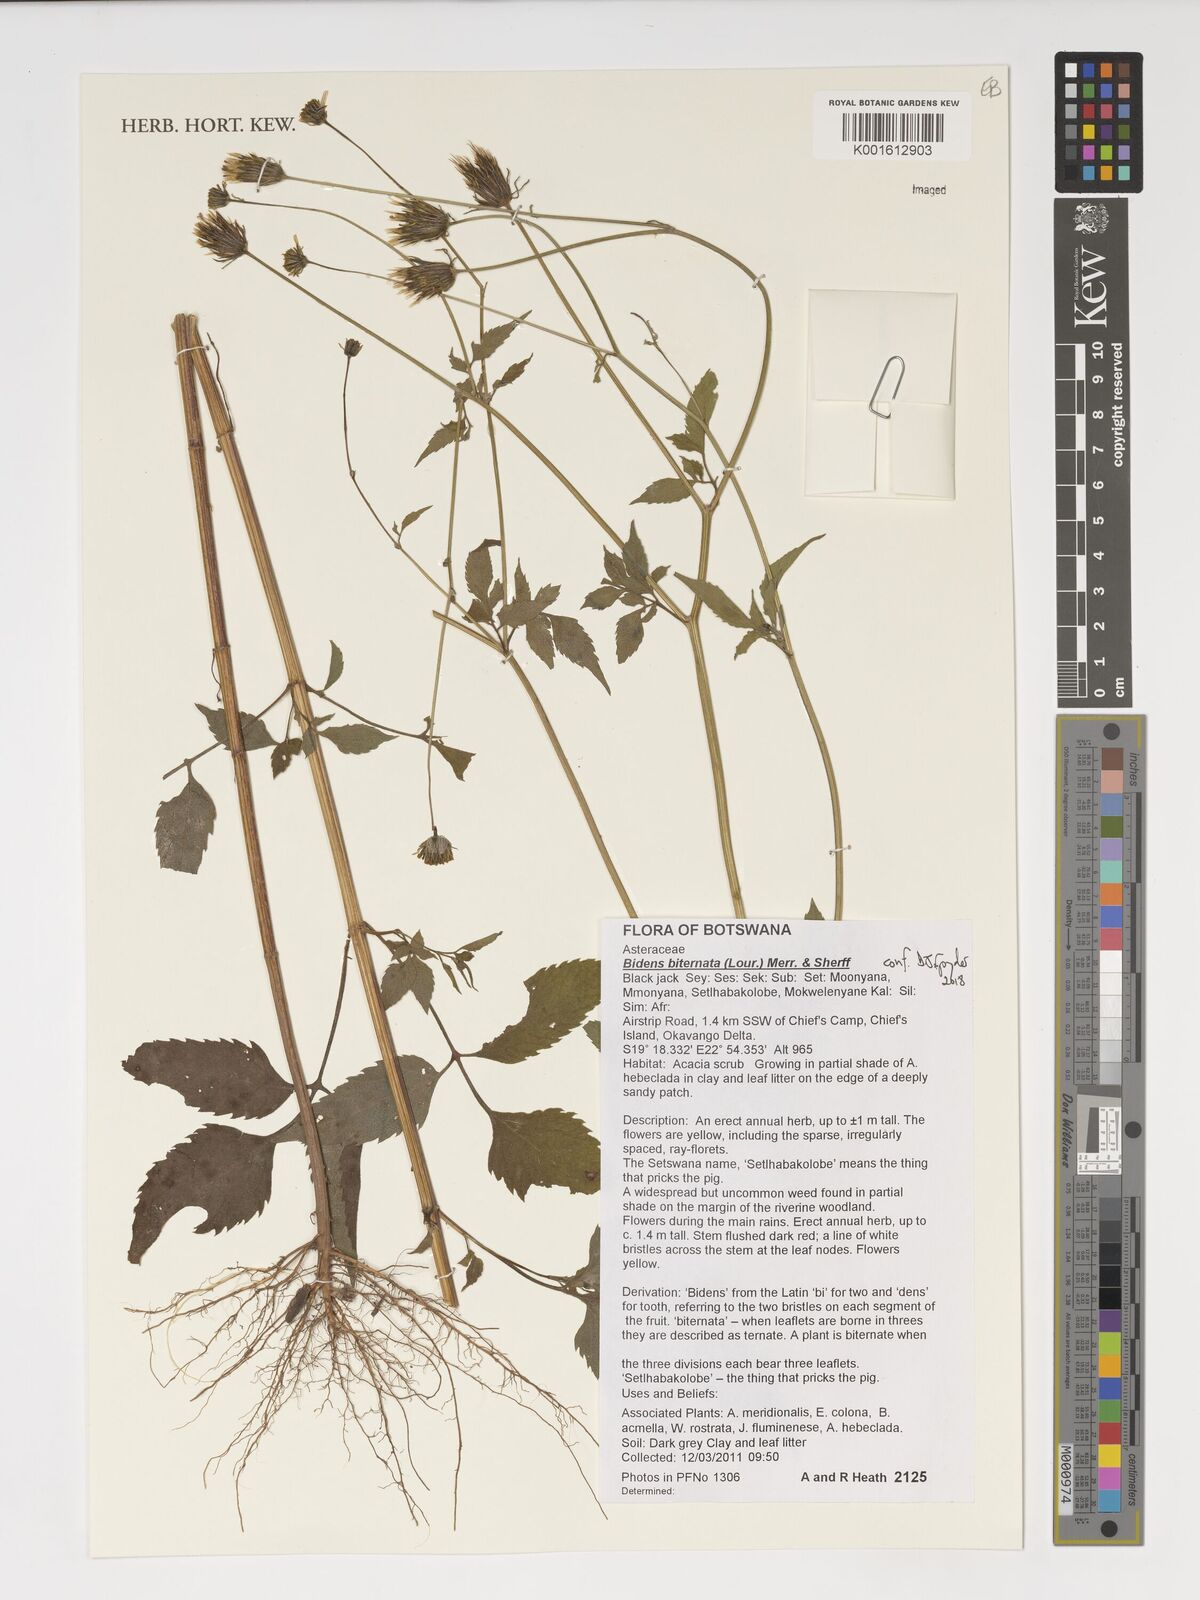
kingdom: Plantae
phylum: Tracheophyta
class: Magnoliopsida
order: Asterales
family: Asteraceae
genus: Bidens
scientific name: Bidens biternata
